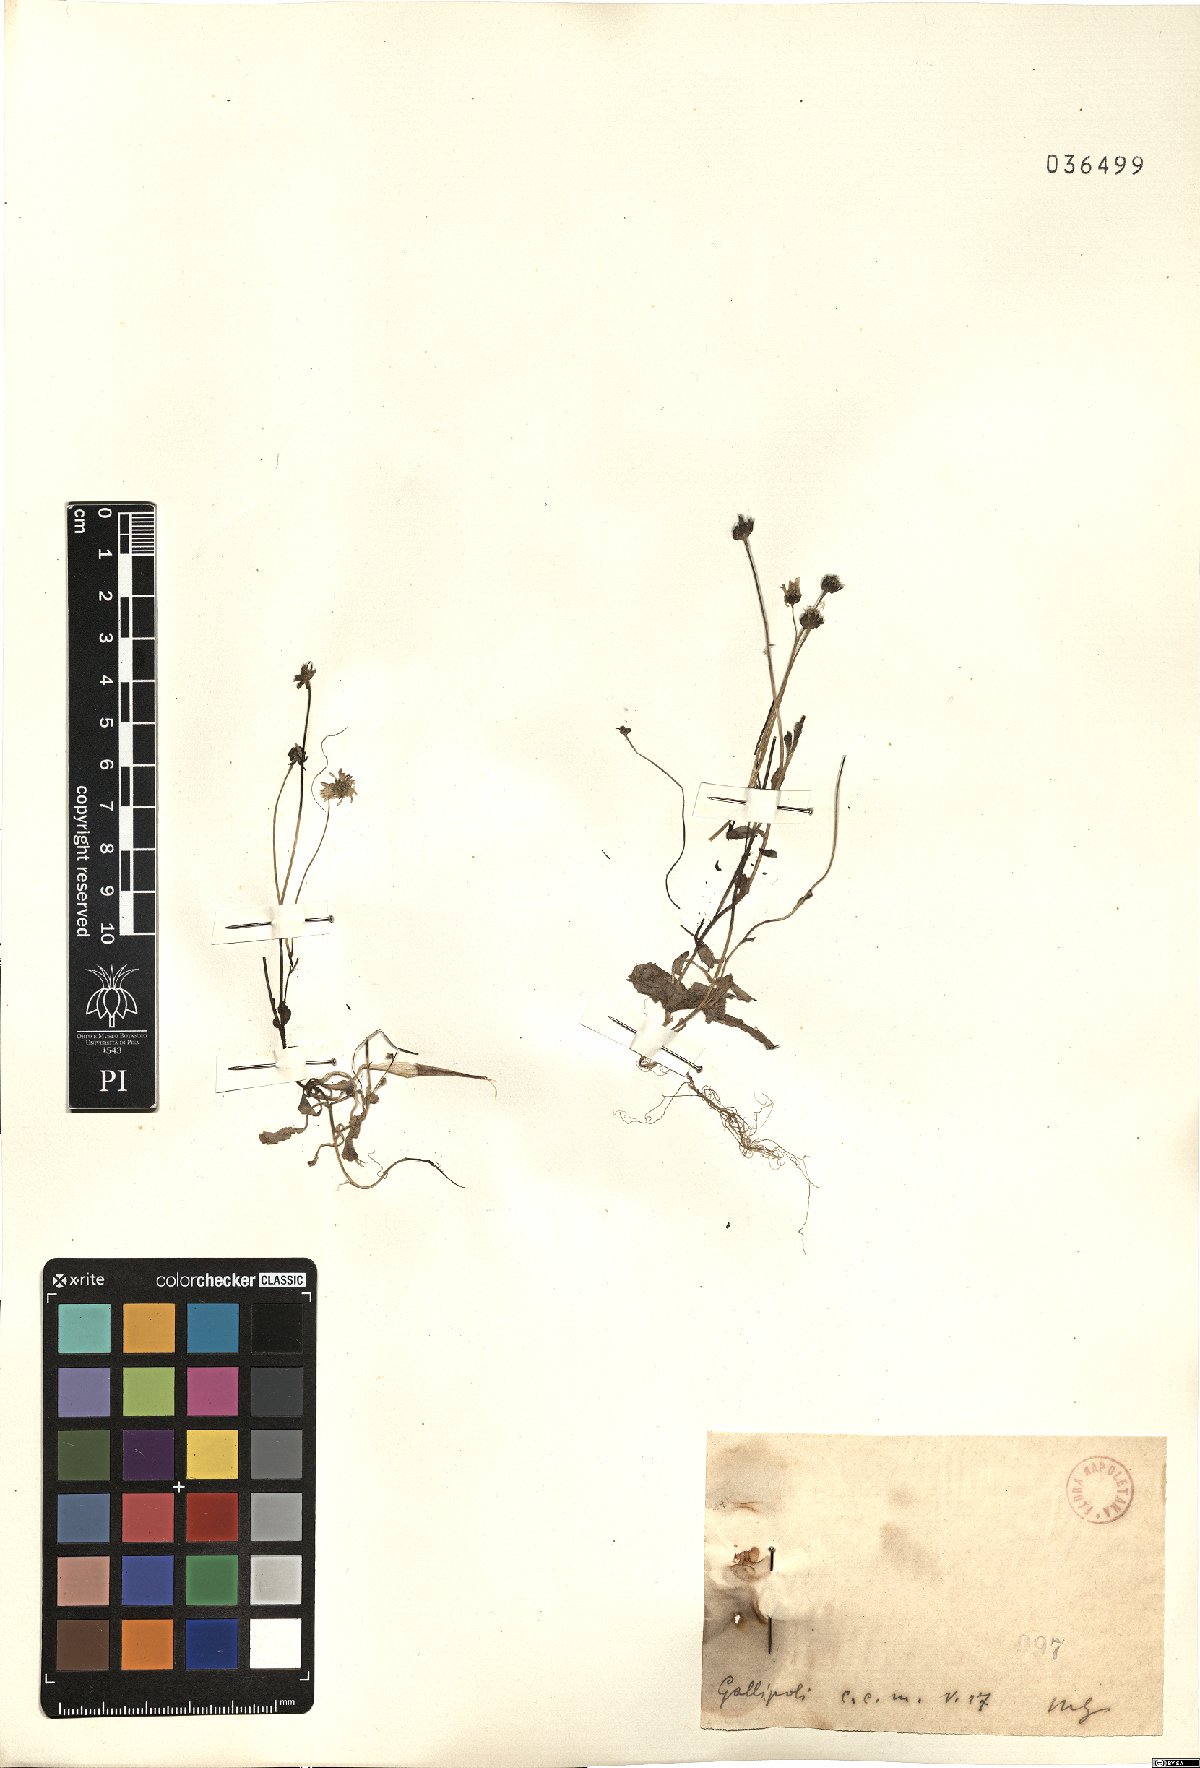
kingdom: Plantae
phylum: Tracheophyta
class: Magnoliopsida
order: Asterales
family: Asteraceae
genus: Bellis
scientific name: Bellis
